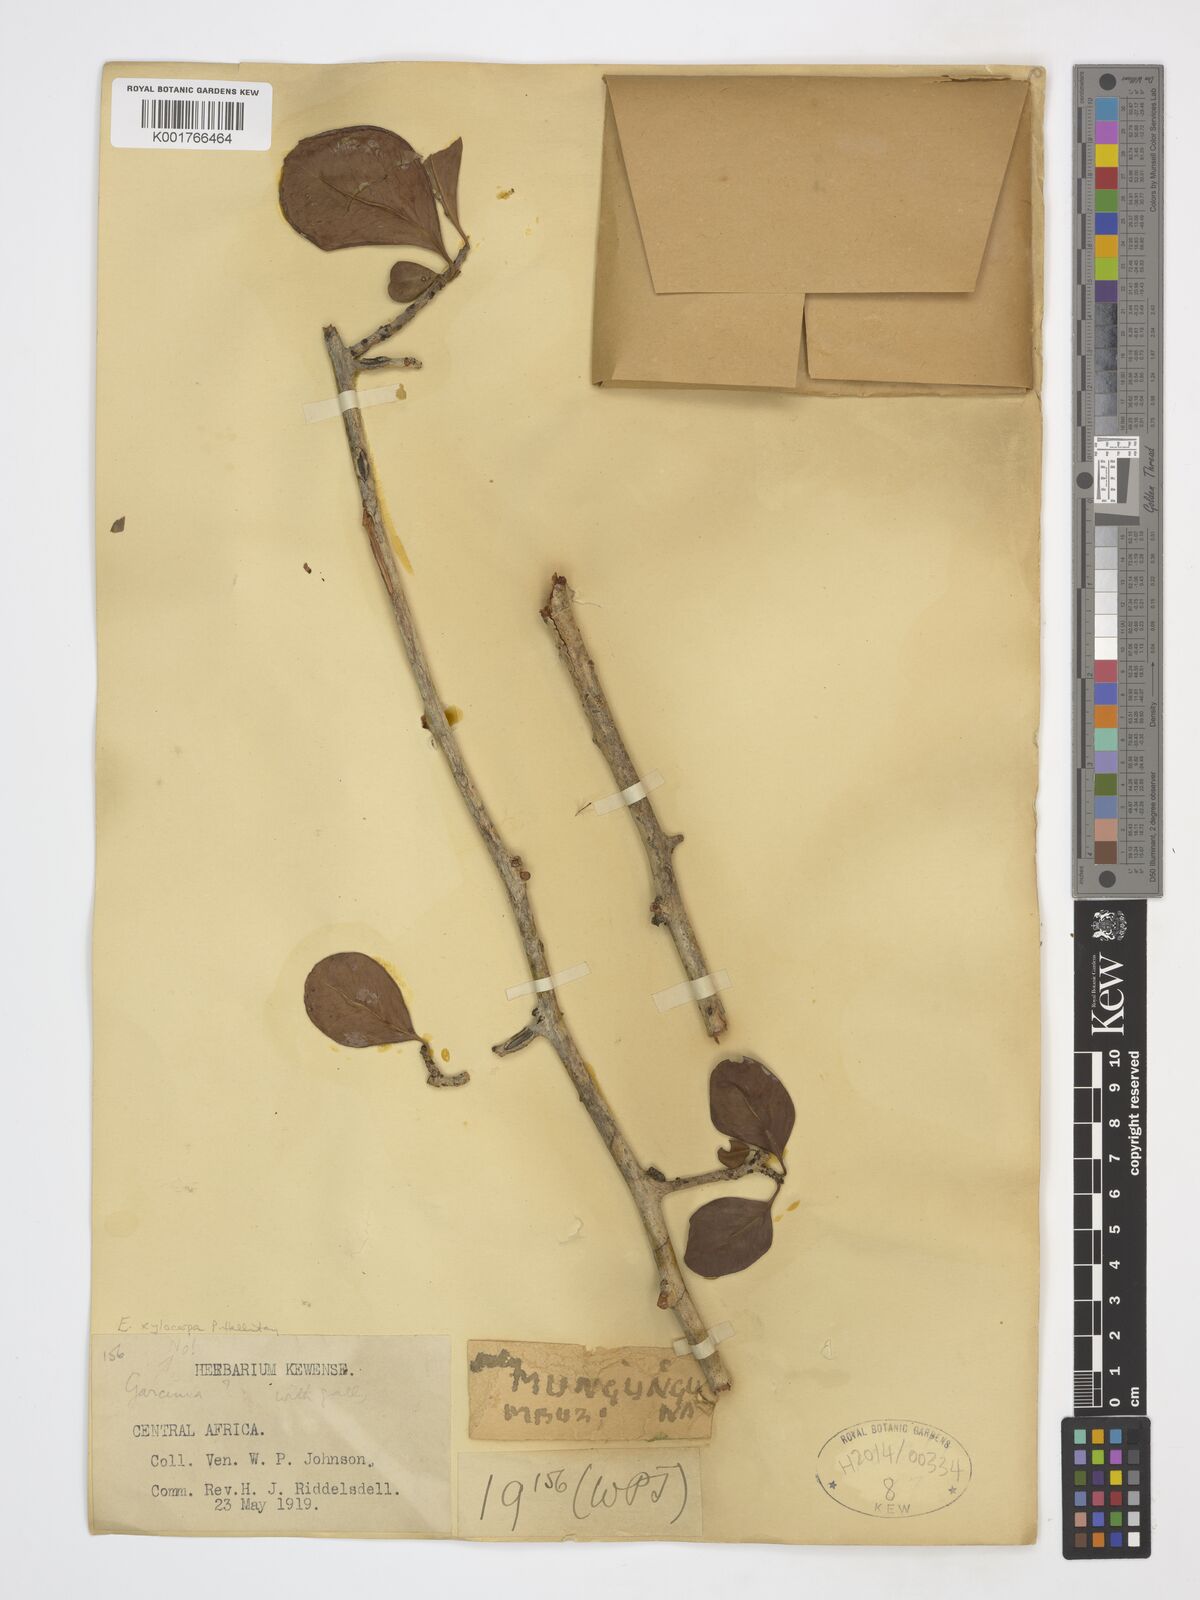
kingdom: Plantae
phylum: Tracheophyta
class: Magnoliopsida
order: Ericales
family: Primulaceae
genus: Embelia
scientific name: Embelia xylocarpa
